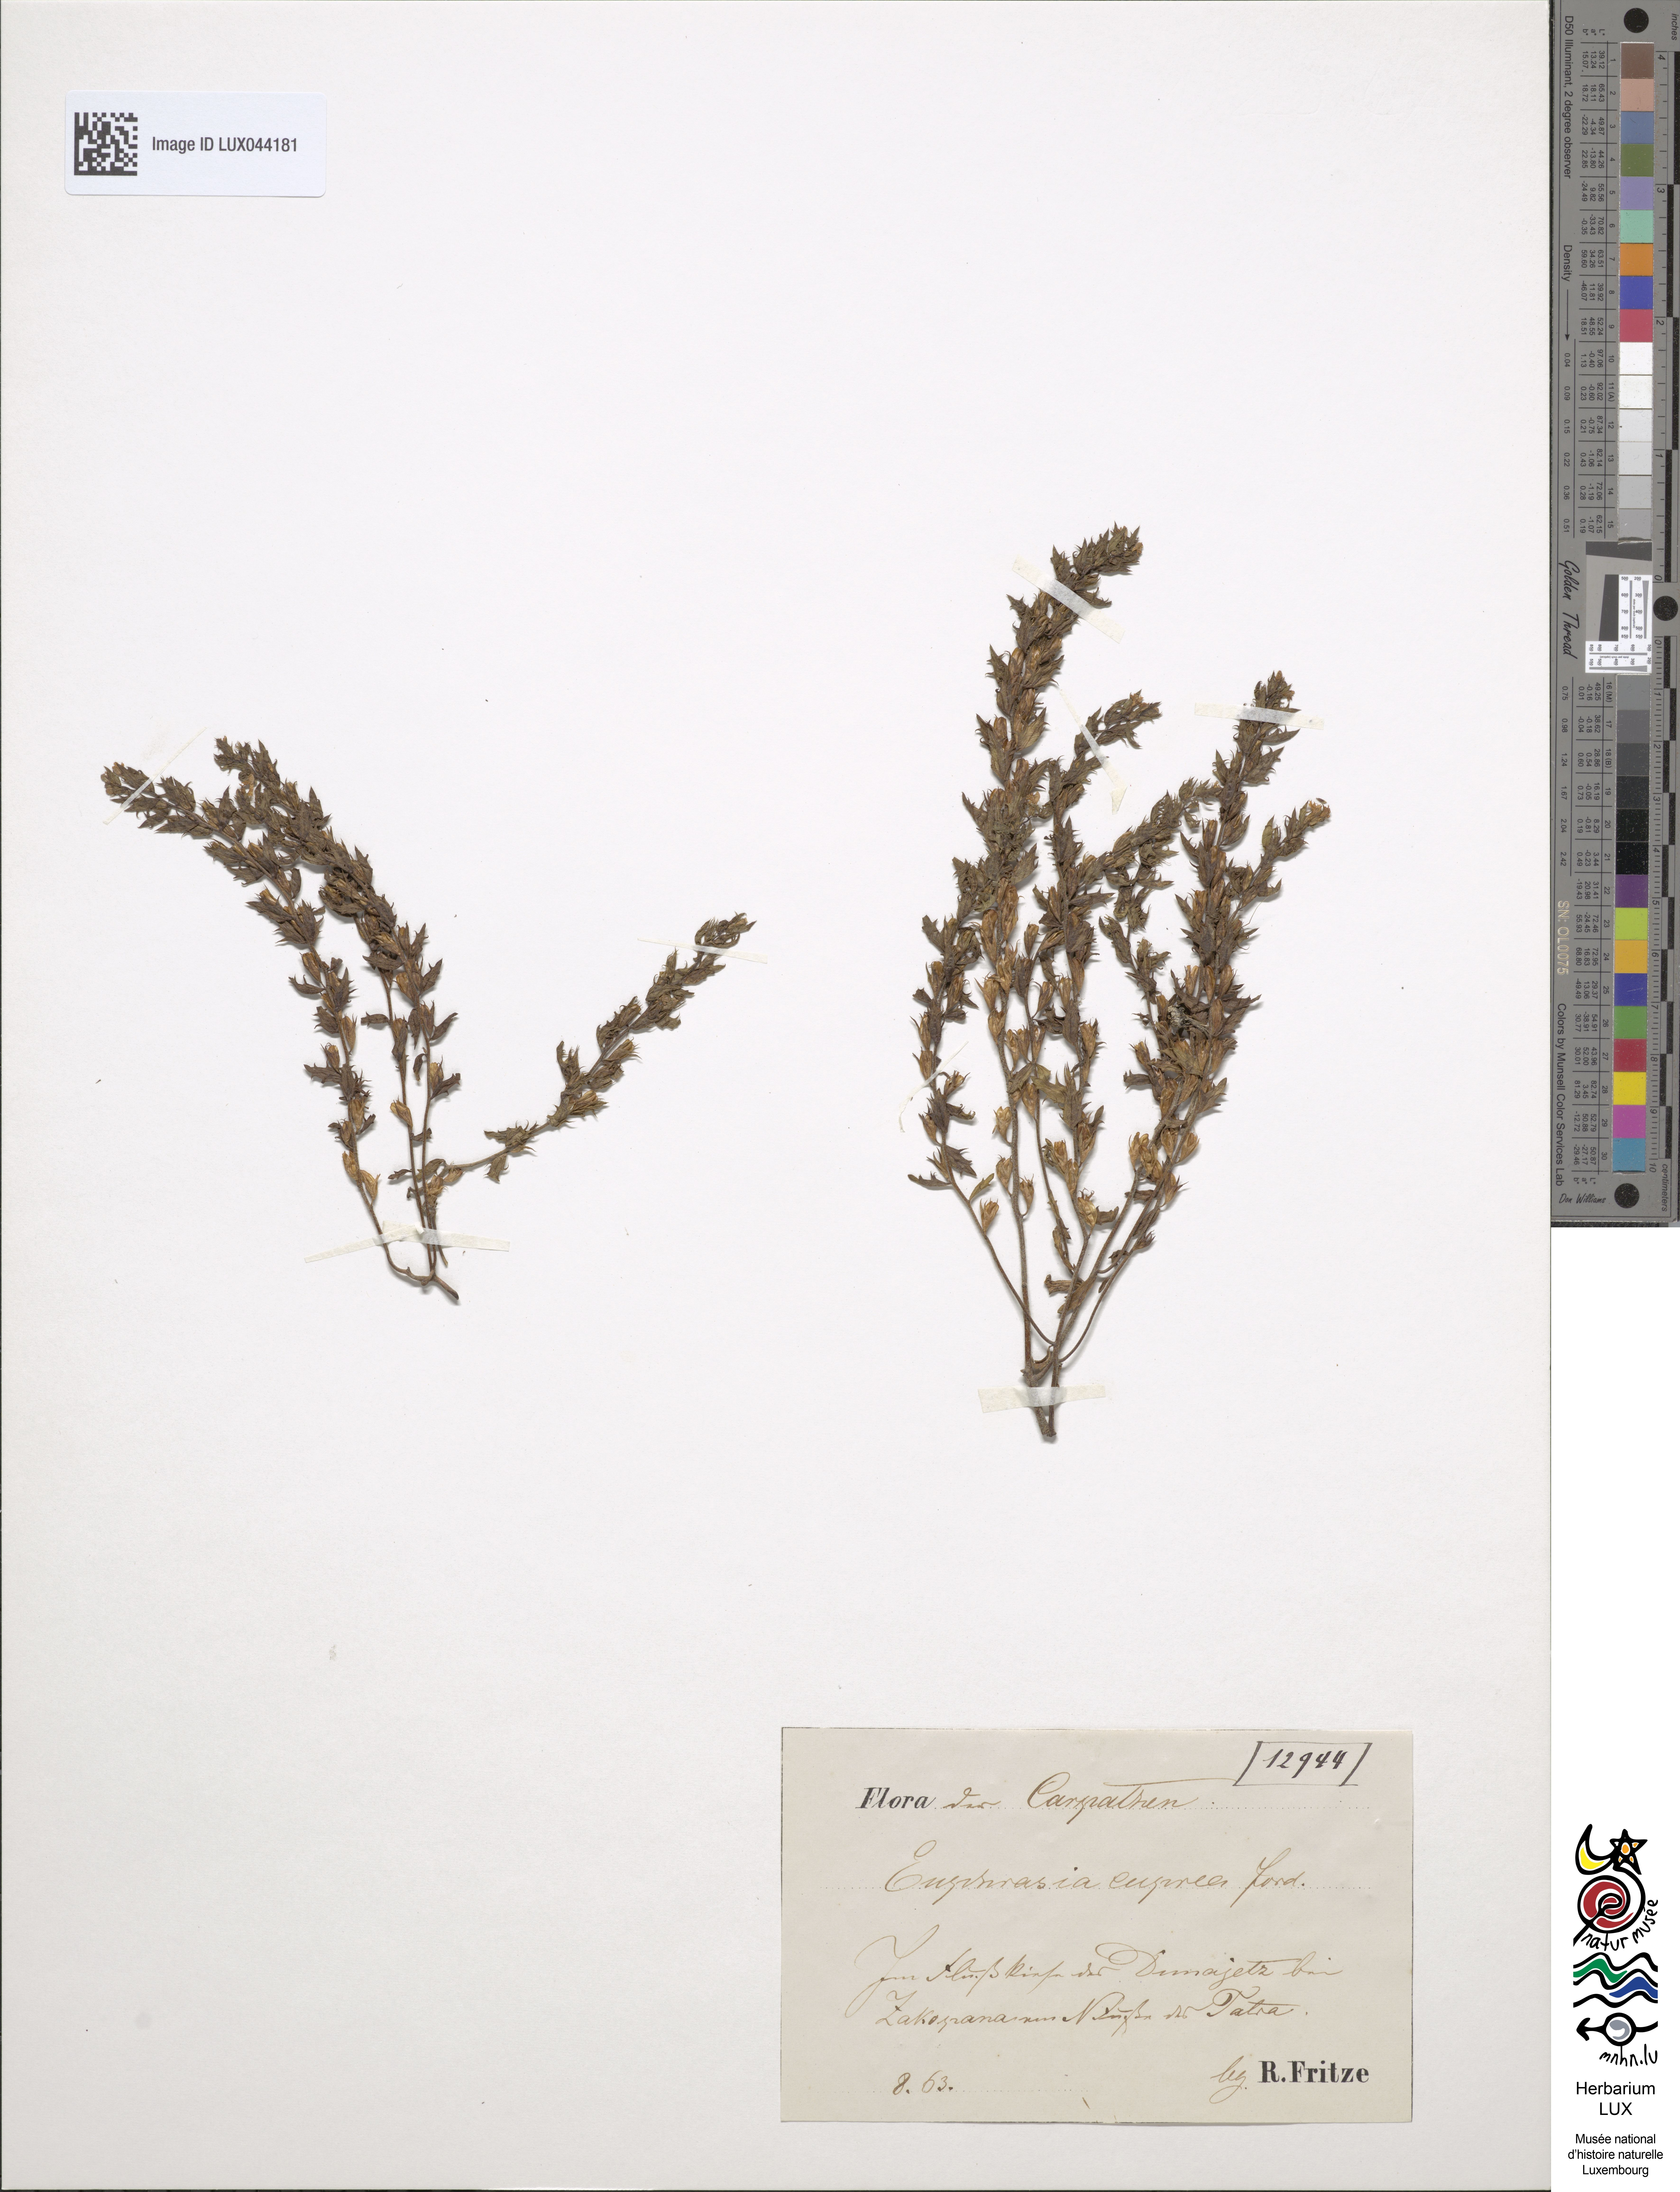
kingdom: Plantae
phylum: Tracheophyta
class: Magnoliopsida
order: Lamiales
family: Orobanchaceae
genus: Euphrasia
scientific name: Euphrasia salisburgensis
